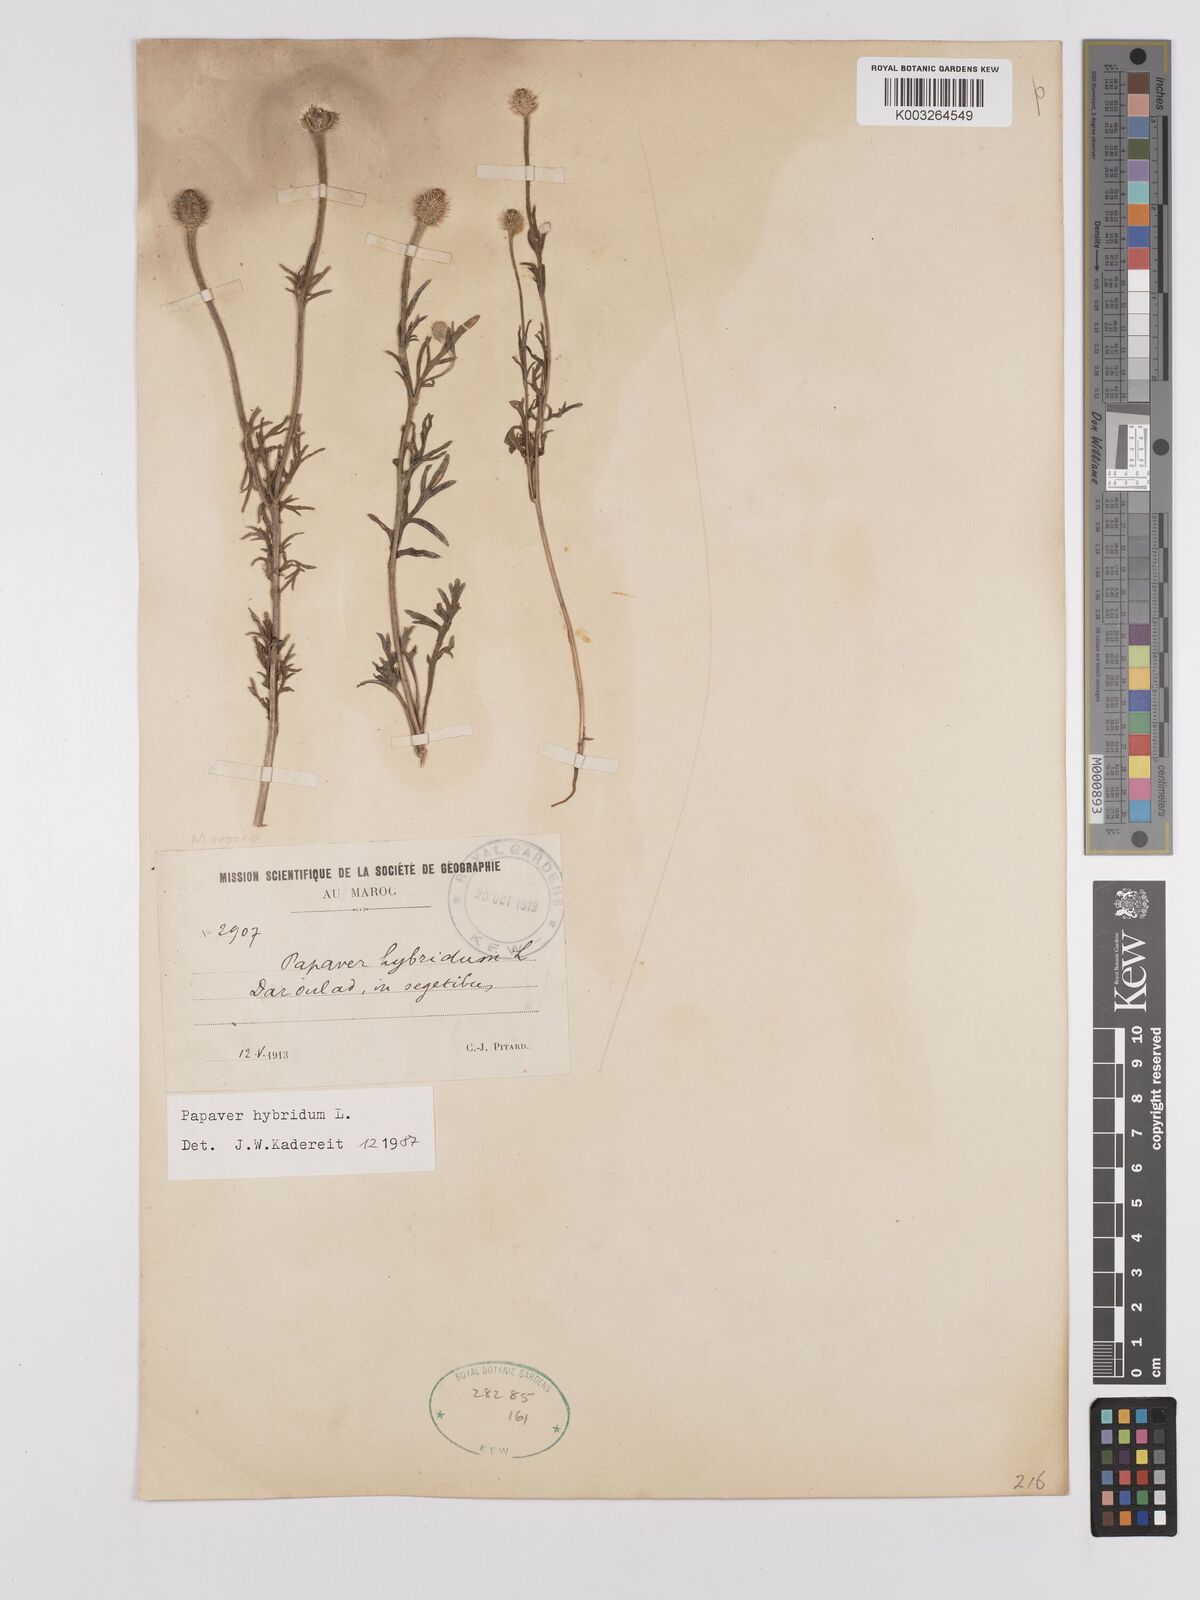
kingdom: Plantae
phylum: Tracheophyta
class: Magnoliopsida
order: Ranunculales
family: Papaveraceae
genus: Papaver
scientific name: Papaver
